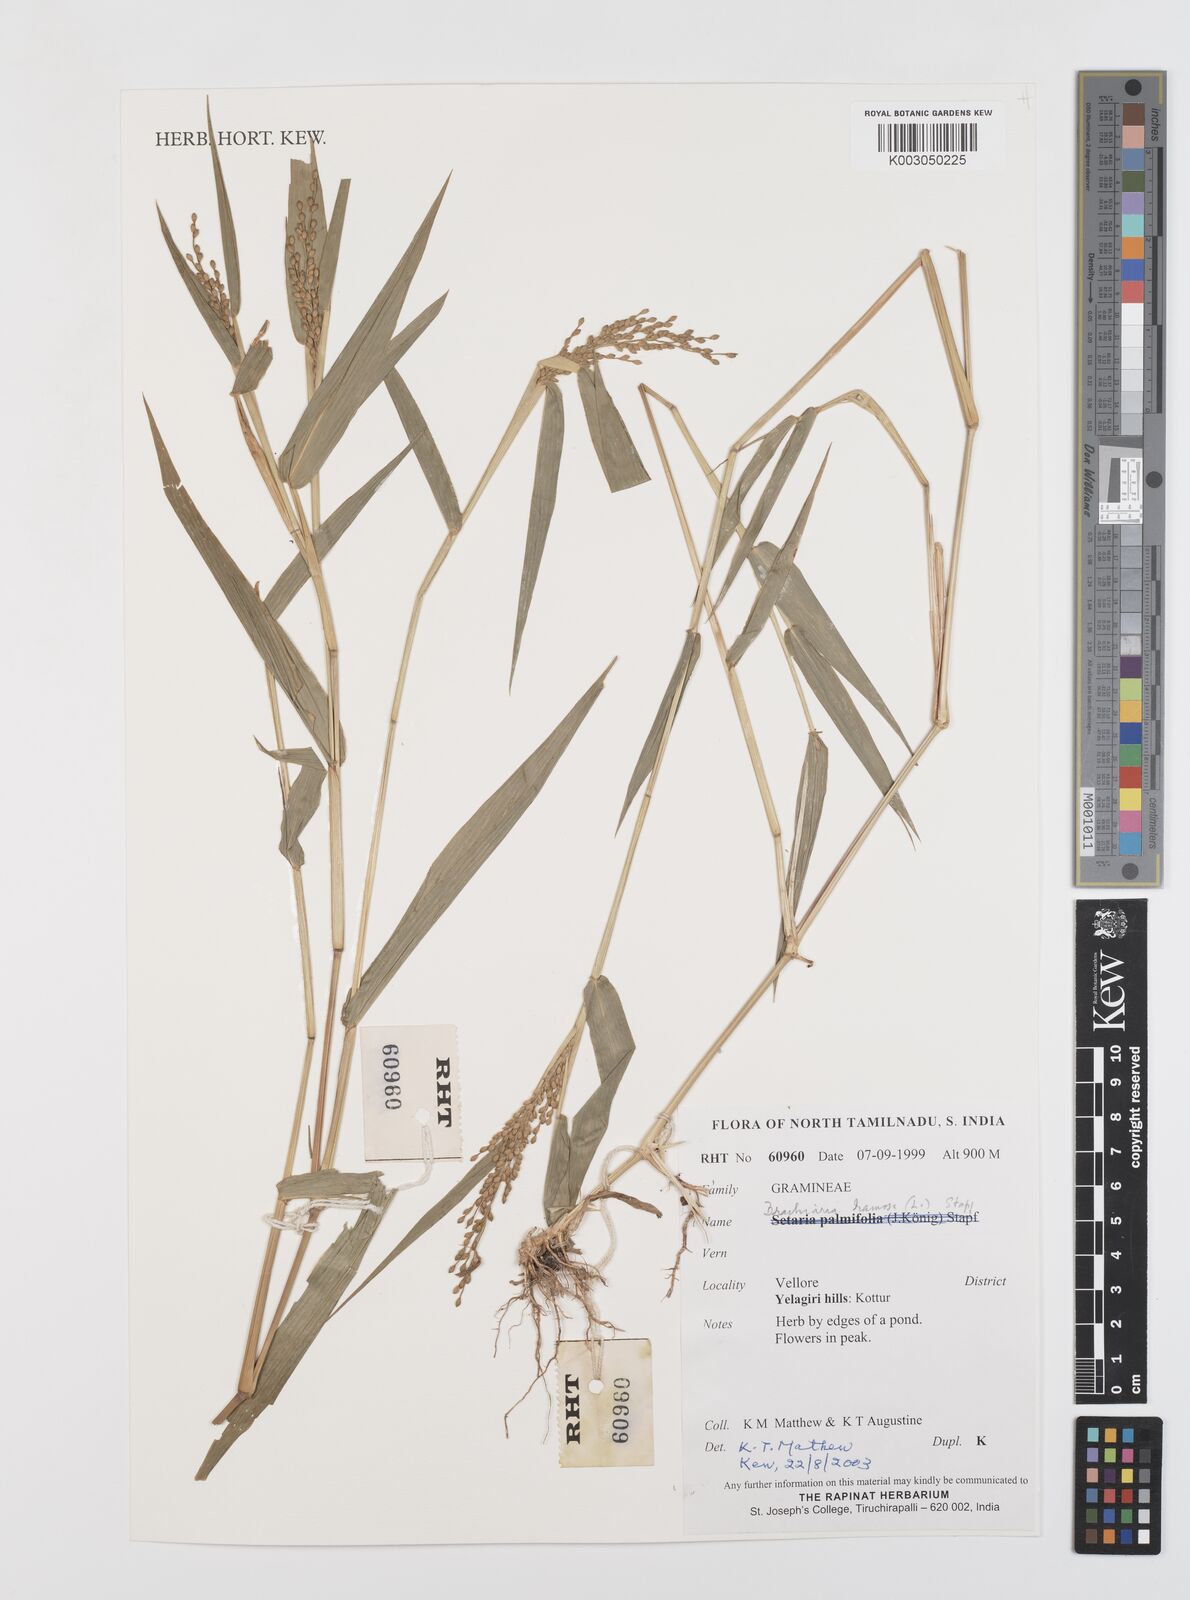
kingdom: Plantae
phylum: Tracheophyta
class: Liliopsida
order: Poales
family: Poaceae
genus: Urochloa
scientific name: Urochloa ramosa
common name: Browntop millet
